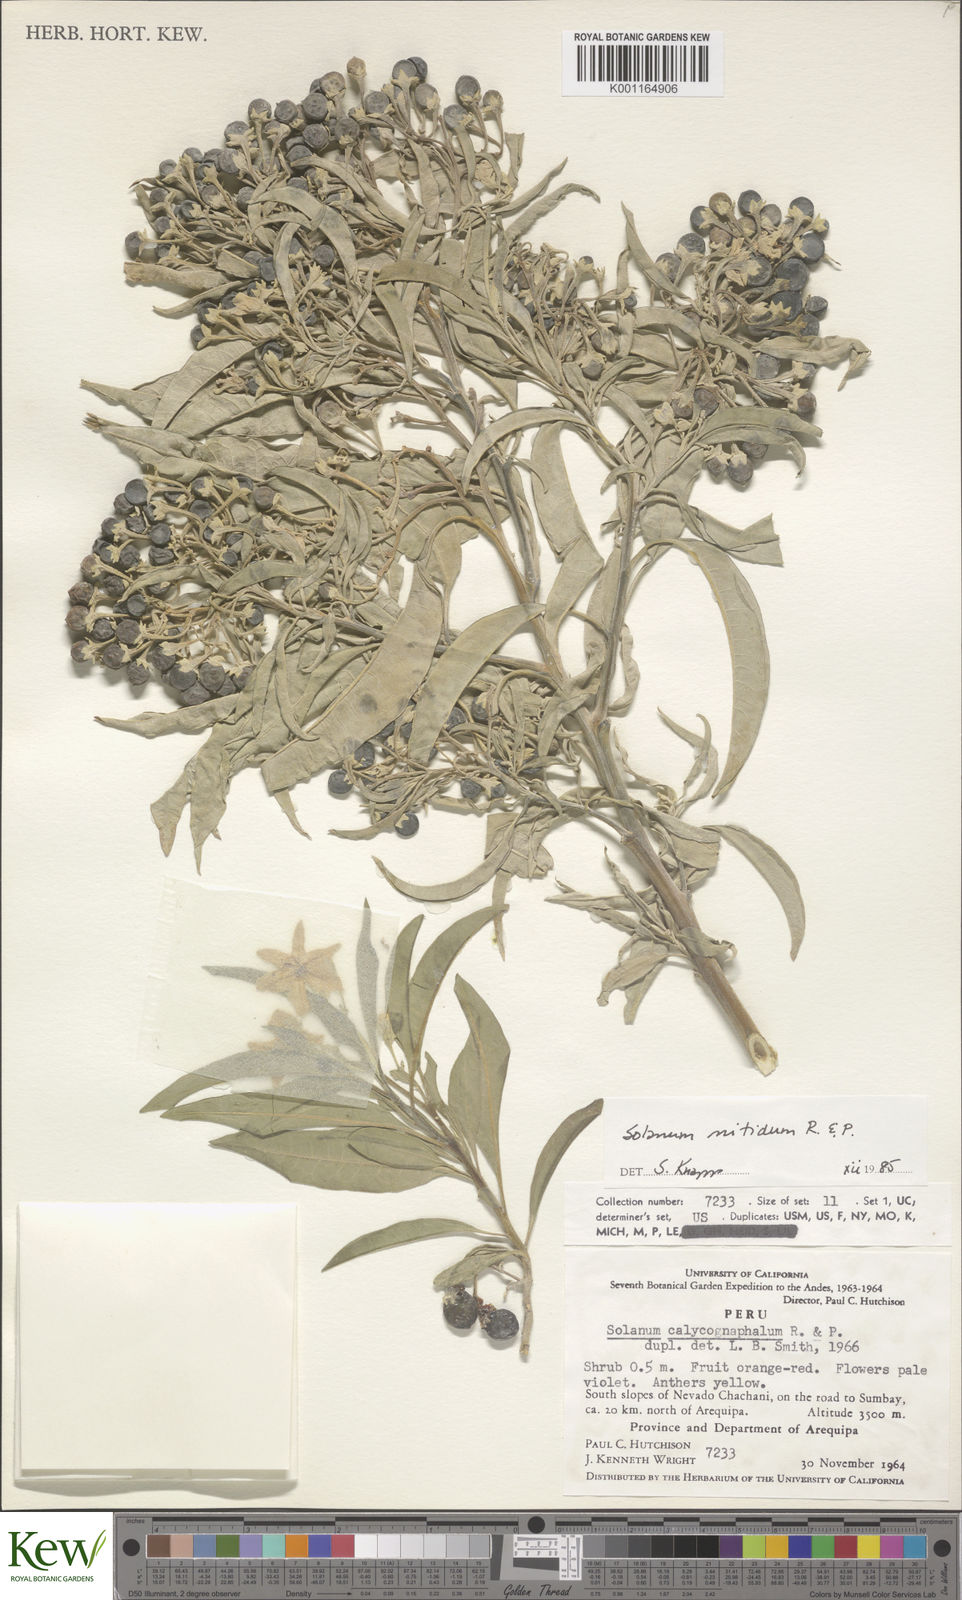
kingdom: Plantae
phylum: Tracheophyta
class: Magnoliopsida
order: Solanales
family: Solanaceae
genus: Solanum
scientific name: Solanum nitidum
